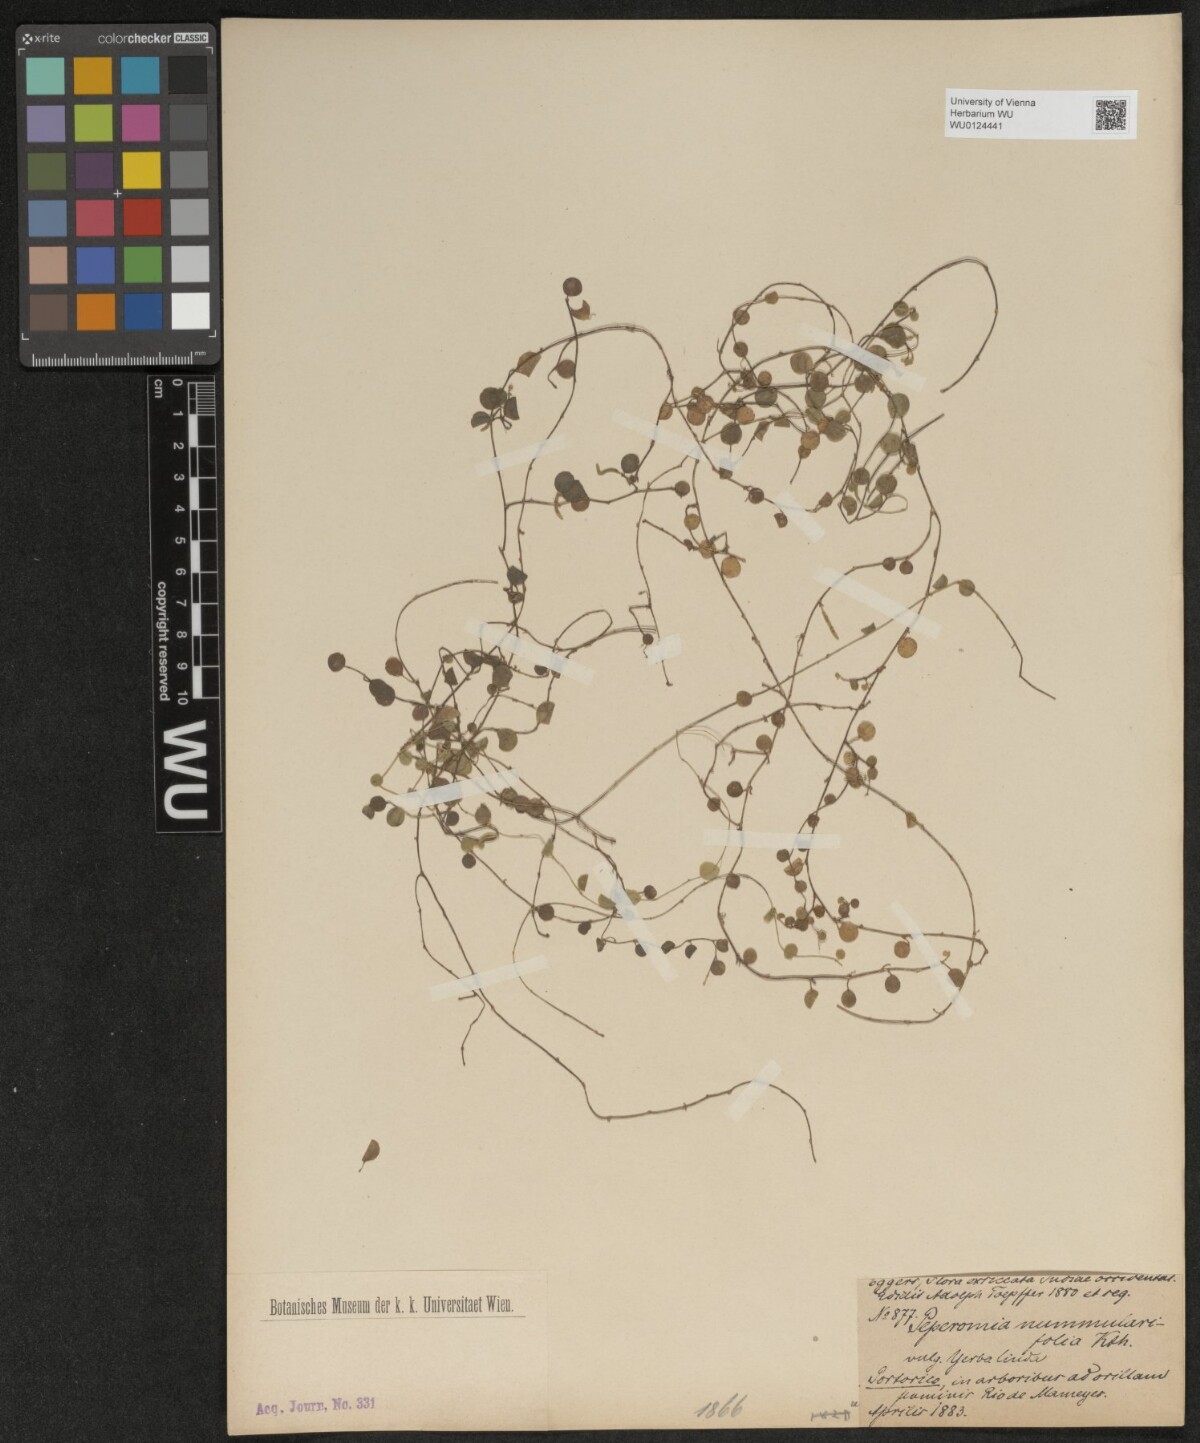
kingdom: Plantae
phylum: Tracheophyta
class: Magnoliopsida
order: Piperales
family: Piperaceae
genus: Peperomia
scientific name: Peperomia rotundifolia
